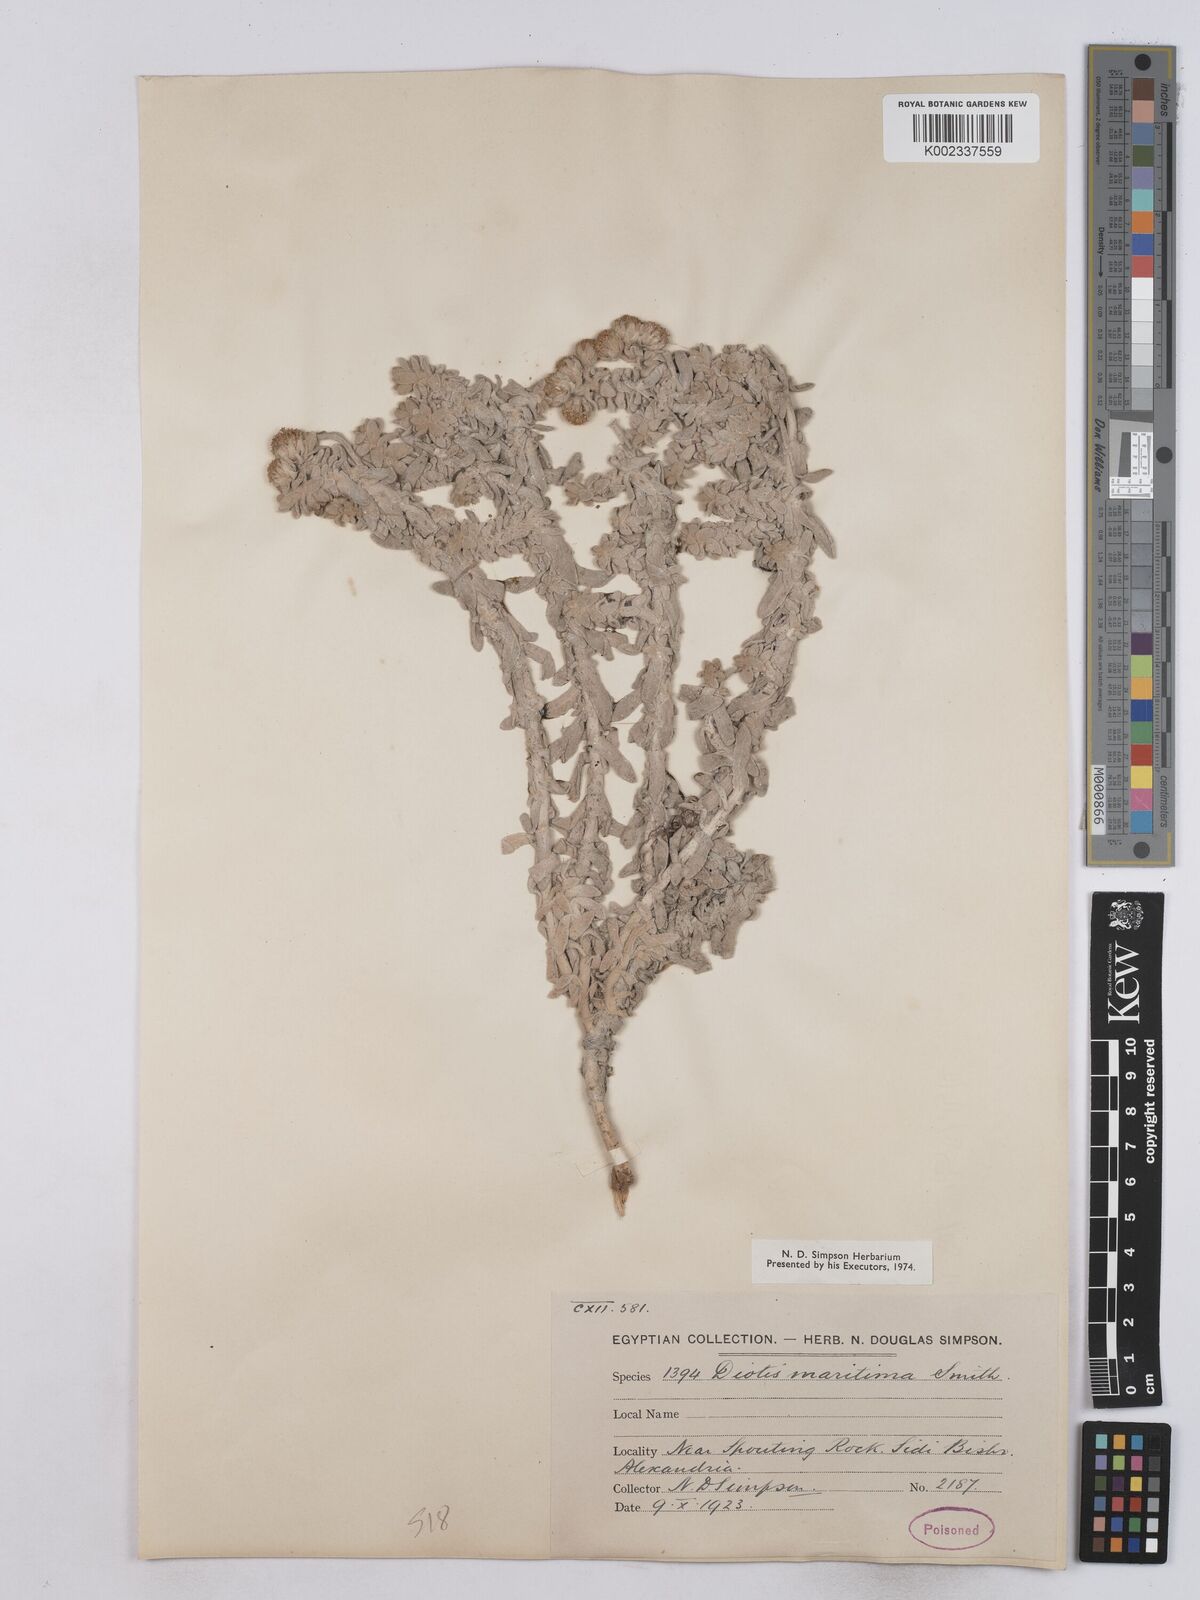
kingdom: Plantae
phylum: Tracheophyta
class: Magnoliopsida
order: Asterales
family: Asteraceae
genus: Achillea
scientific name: Achillea maritima
